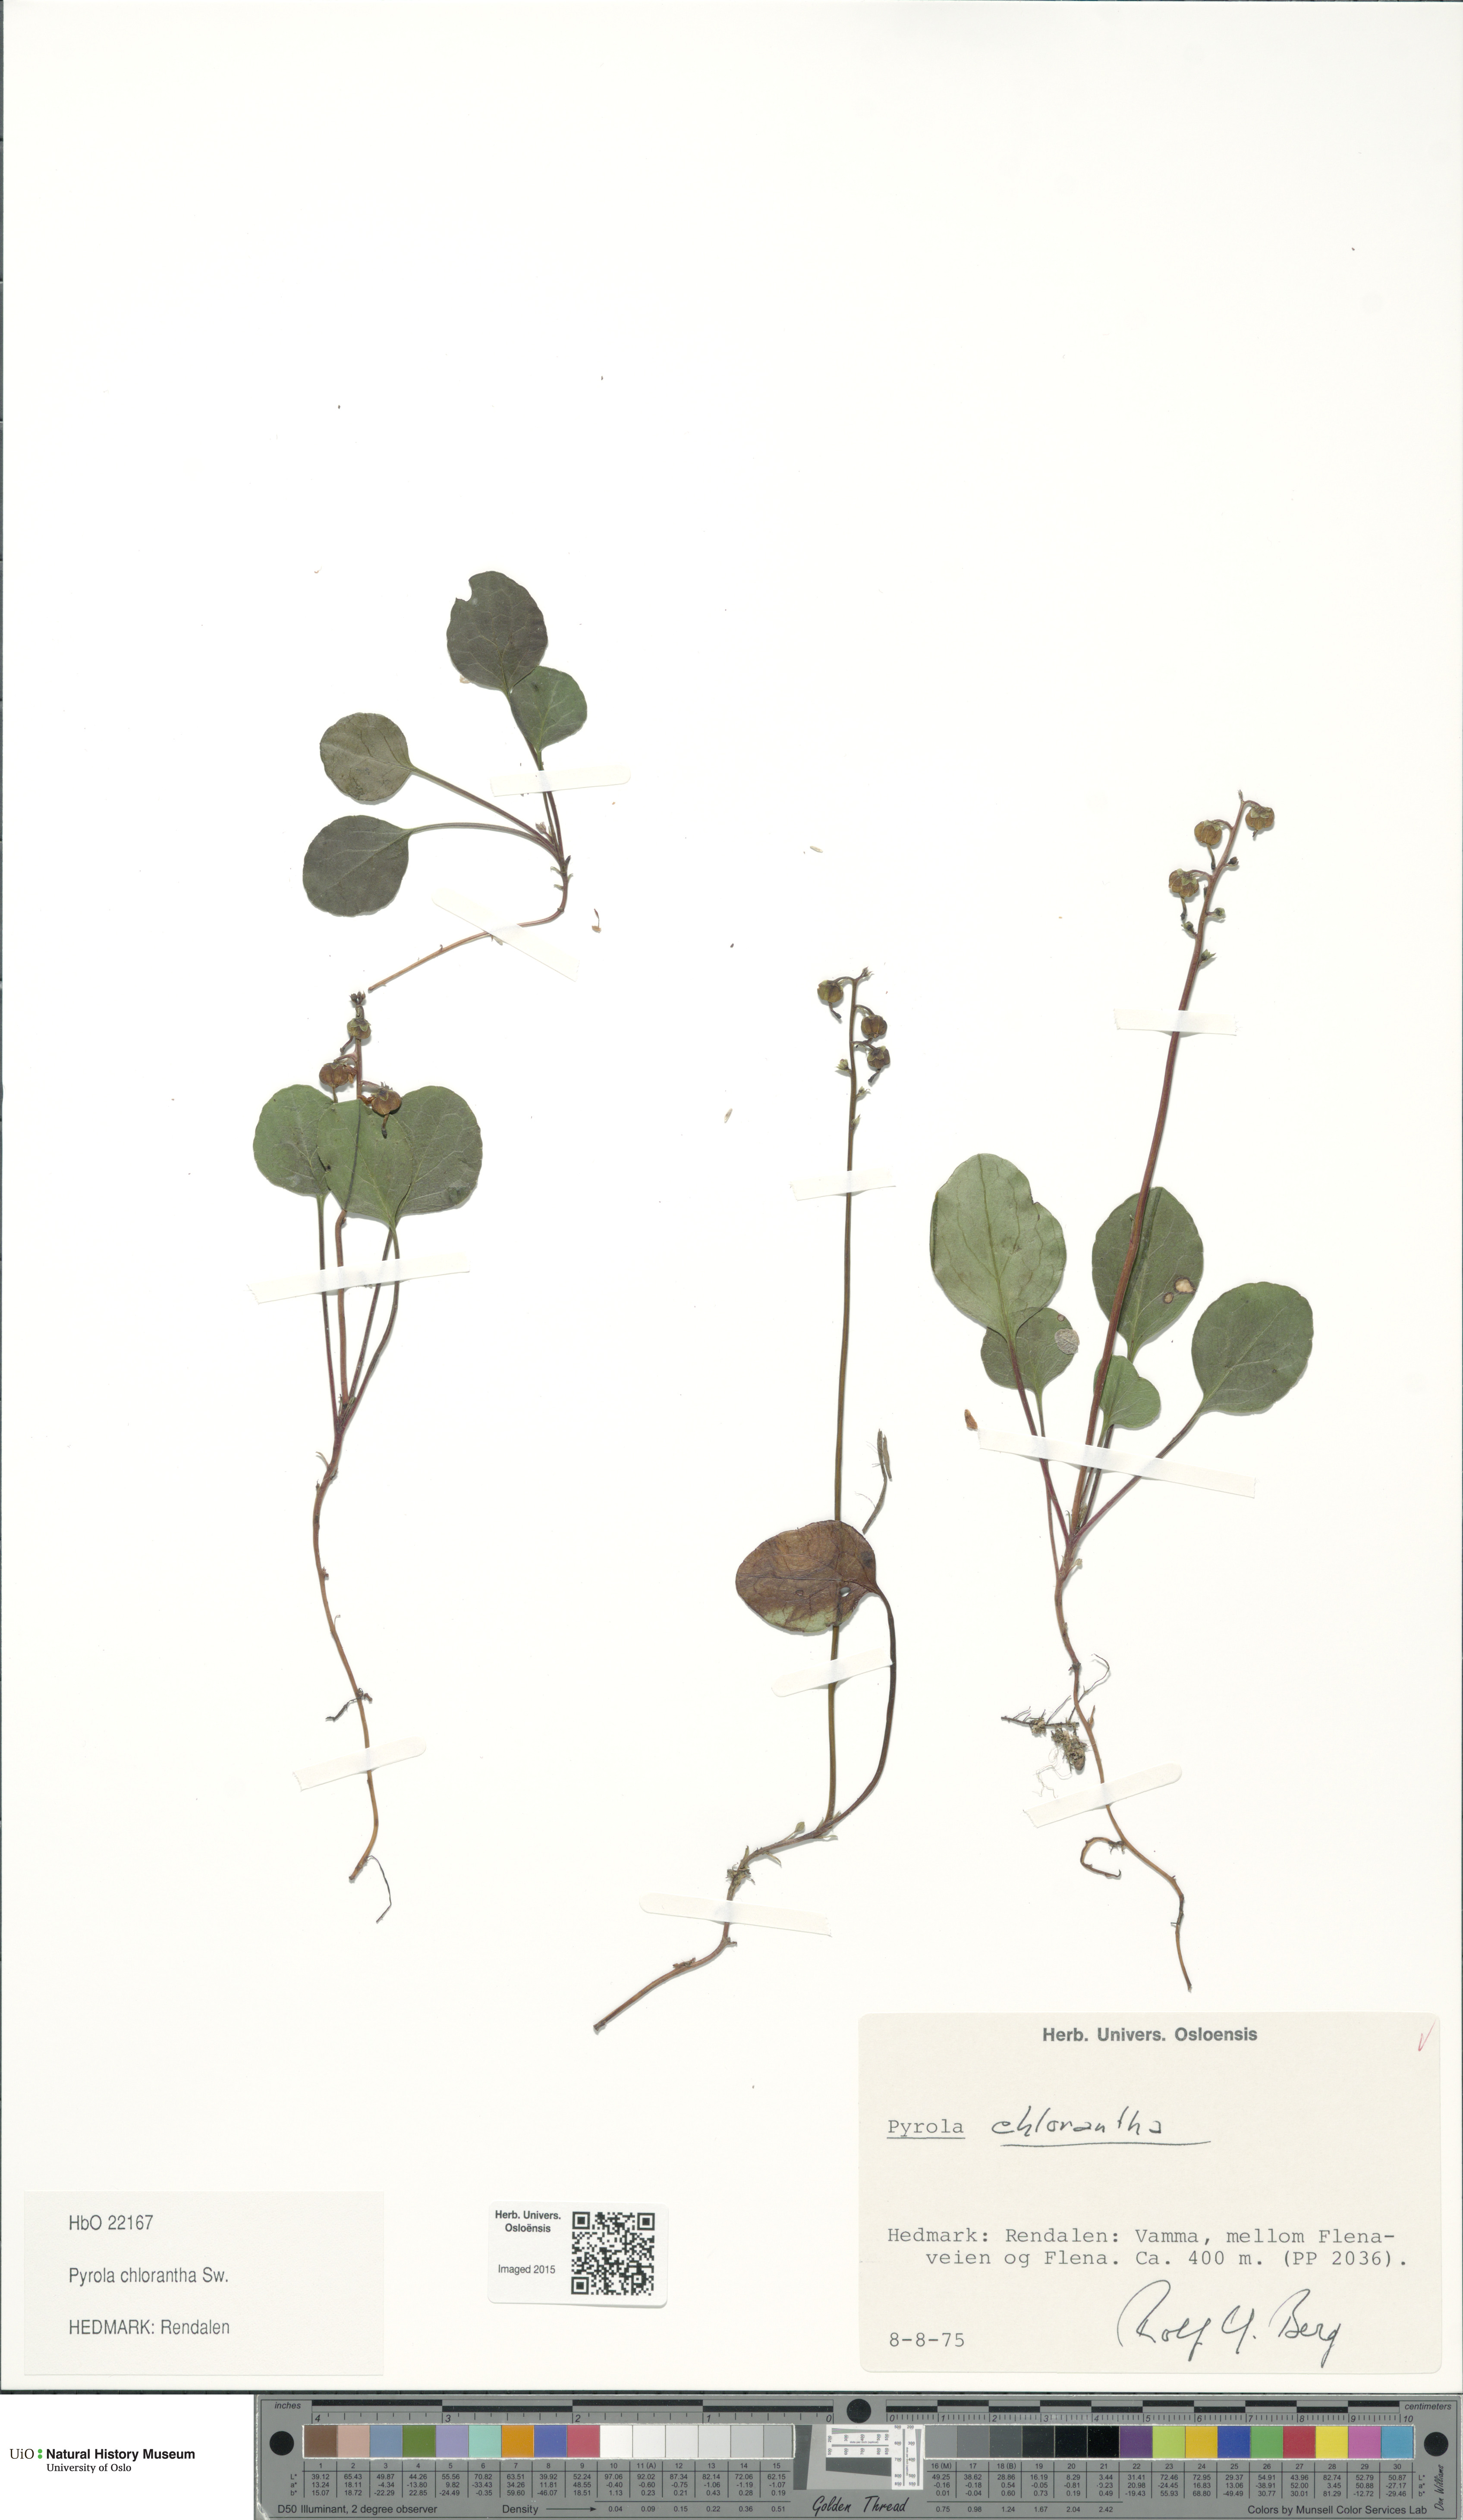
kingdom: Plantae
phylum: Tracheophyta
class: Magnoliopsida
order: Ericales
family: Ericaceae
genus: Pyrola
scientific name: Pyrola chlorantha
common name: Green wintergreen
